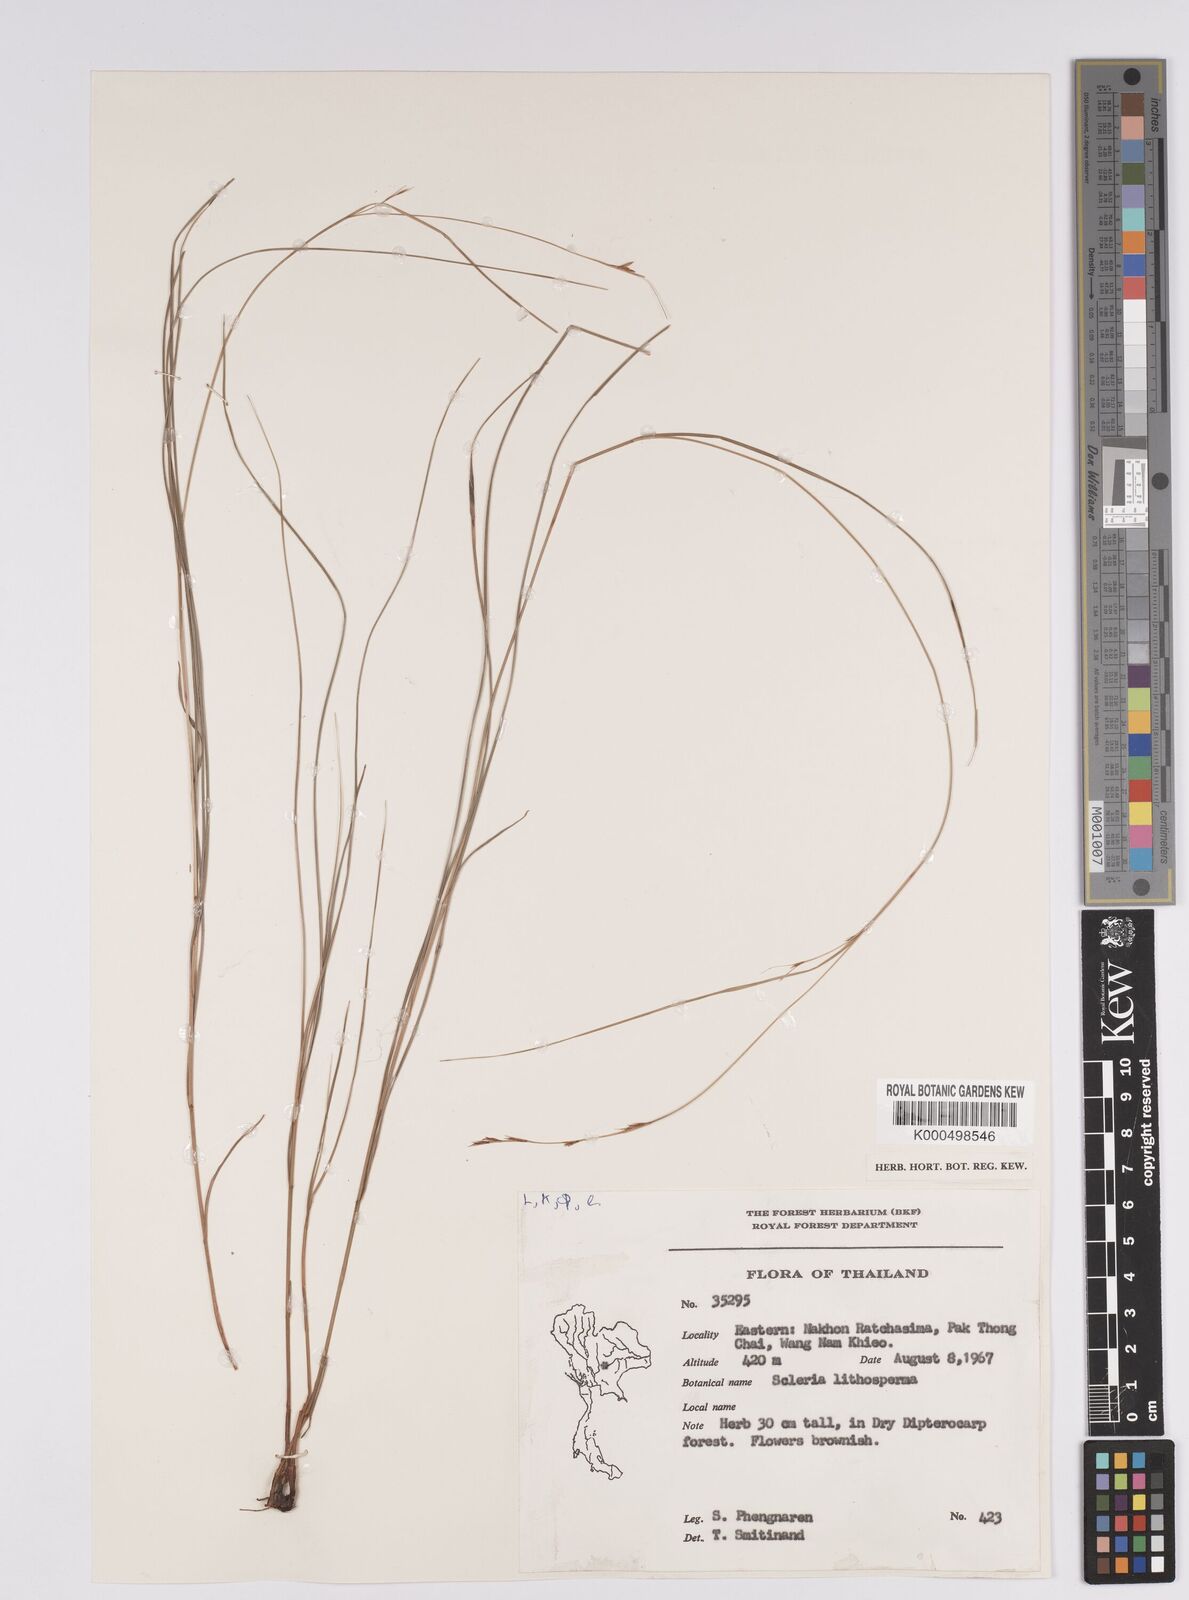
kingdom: Plantae
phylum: Tracheophyta
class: Liliopsida
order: Poales
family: Cyperaceae
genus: Scleria
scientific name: Scleria lithosperma
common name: Florida keys nut-rush
